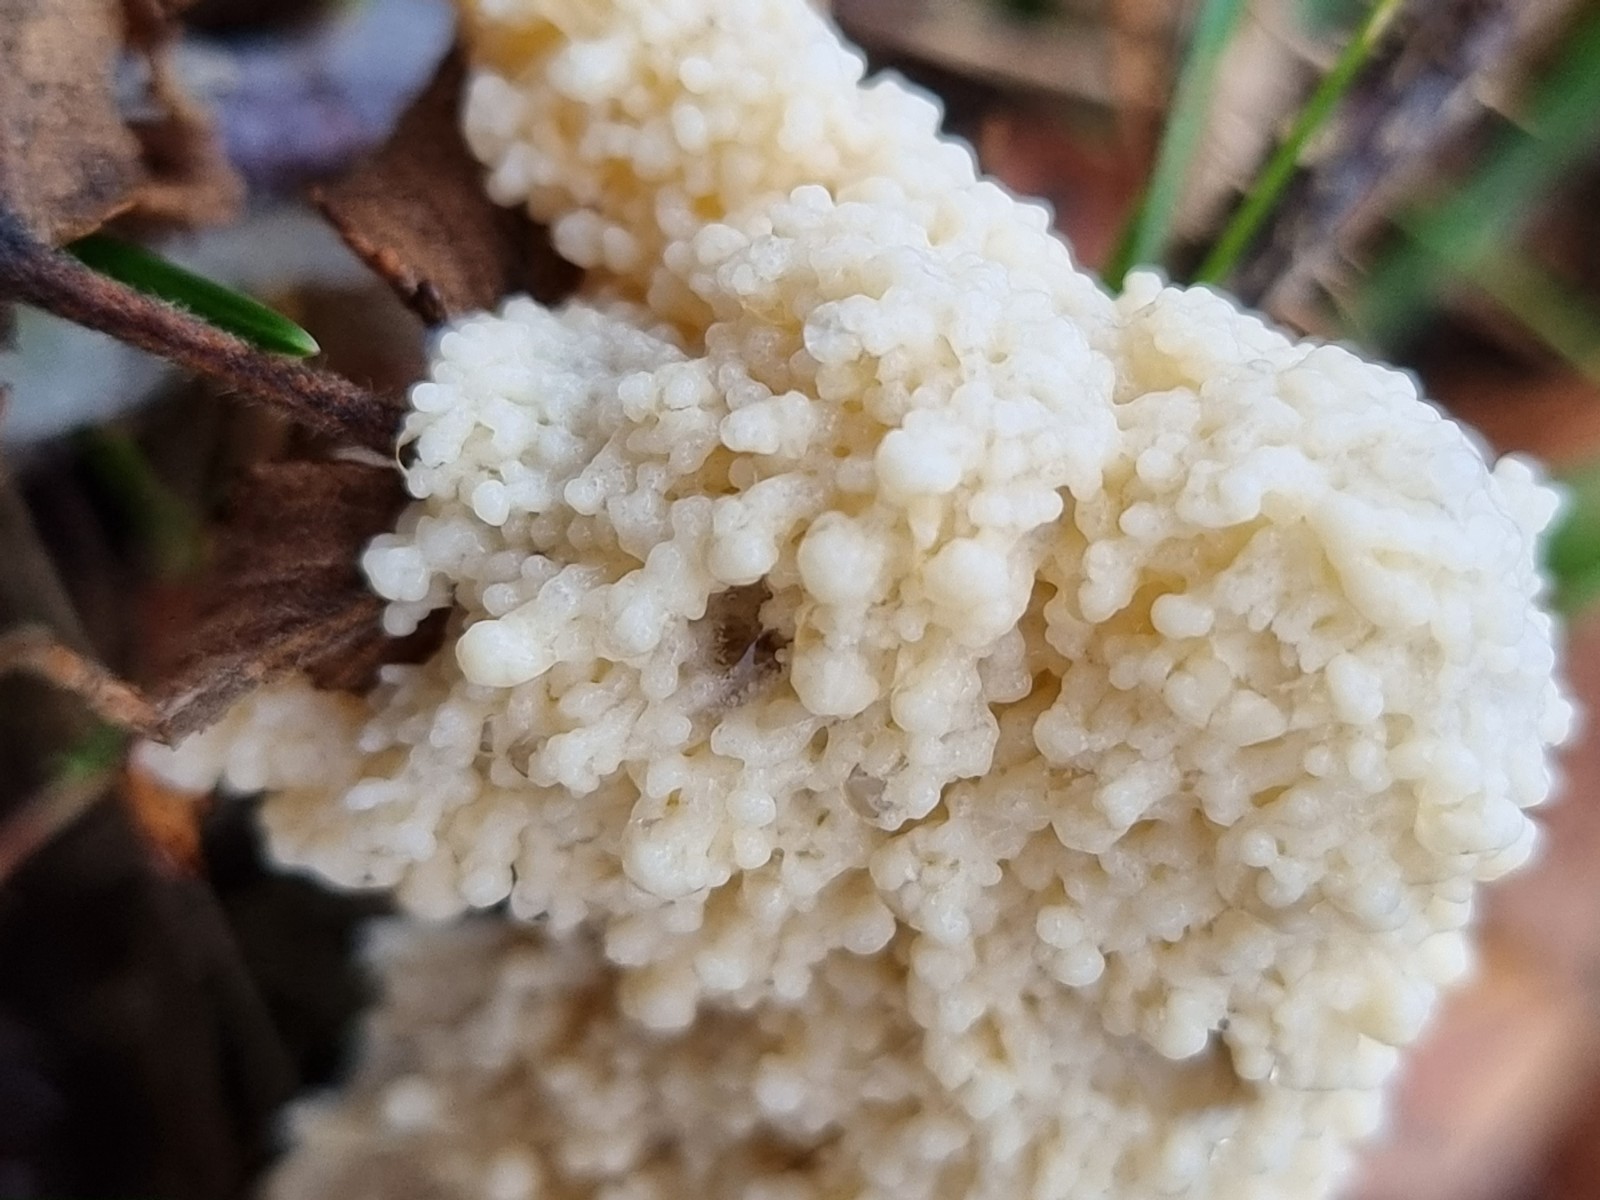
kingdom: Protozoa
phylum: Mycetozoa
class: Myxomycetes
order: Physarales
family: Physaraceae
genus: Didymium
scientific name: Didymium
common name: urteskum
